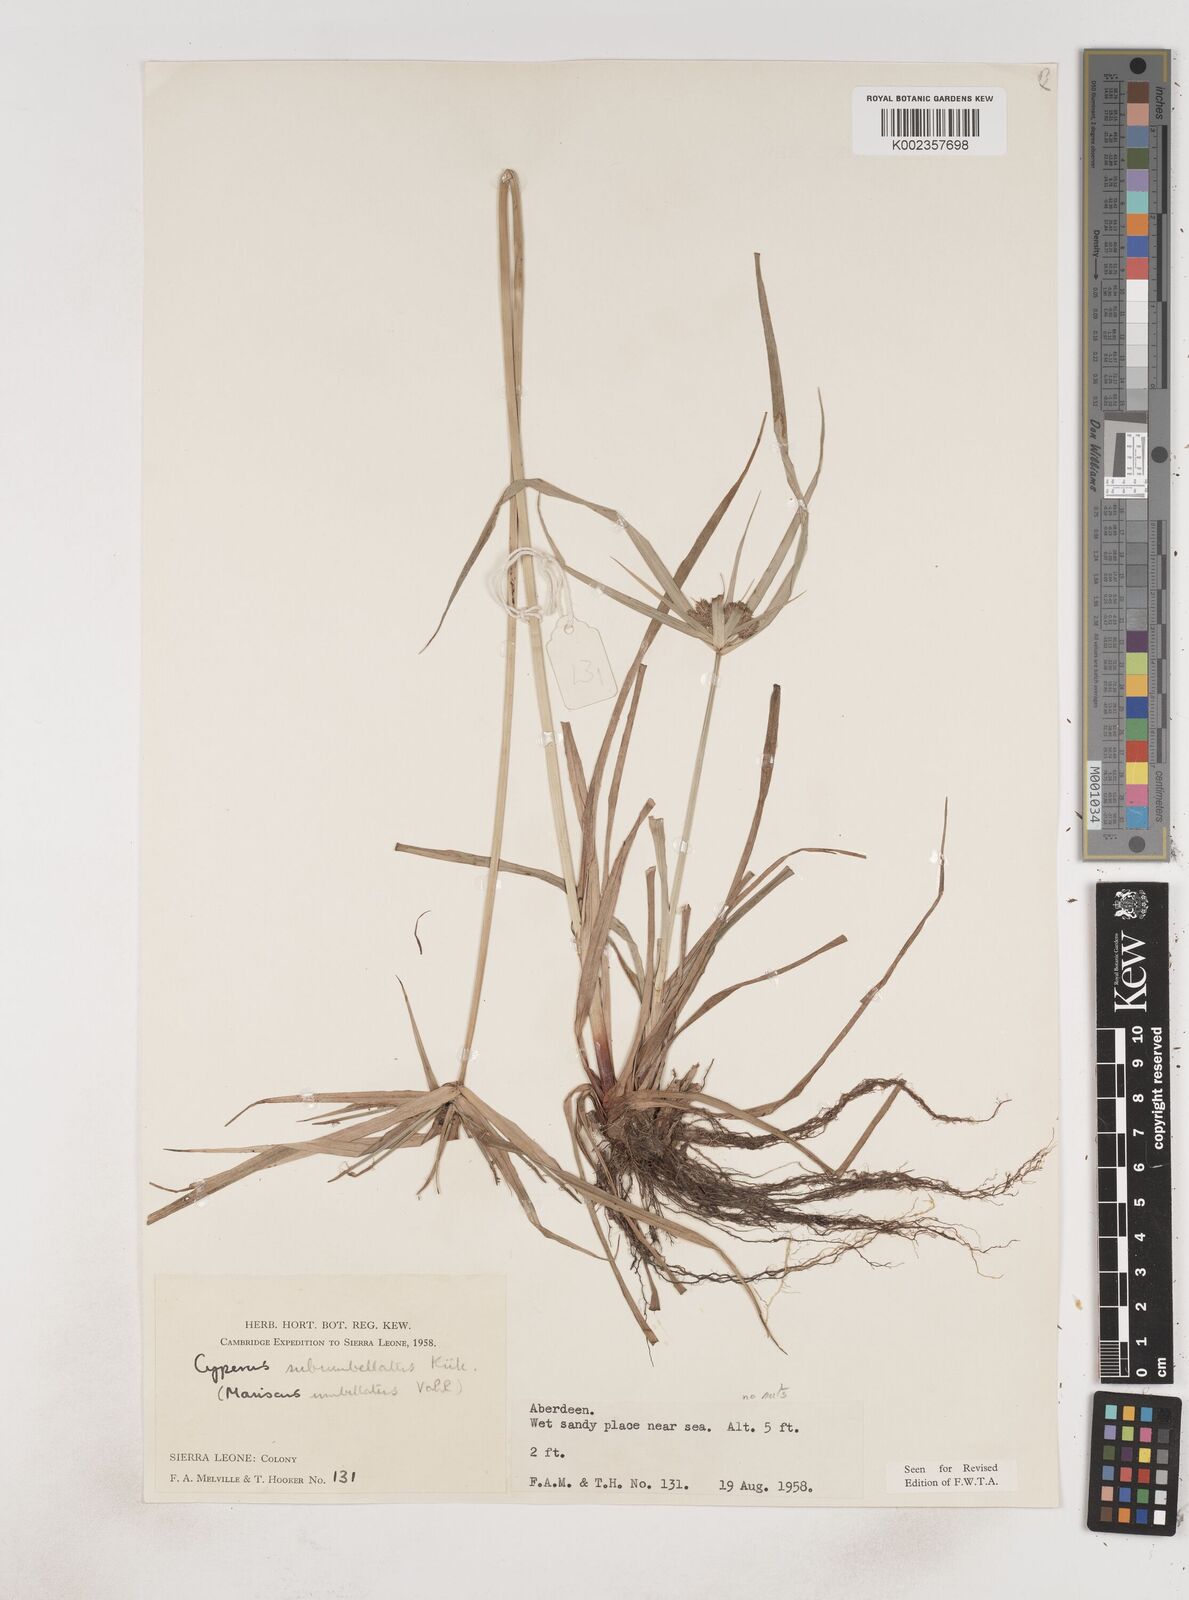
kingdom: Plantae
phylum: Tracheophyta
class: Liliopsida
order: Poales
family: Cyperaceae
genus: Cyperus
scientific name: Cyperus sublimis
